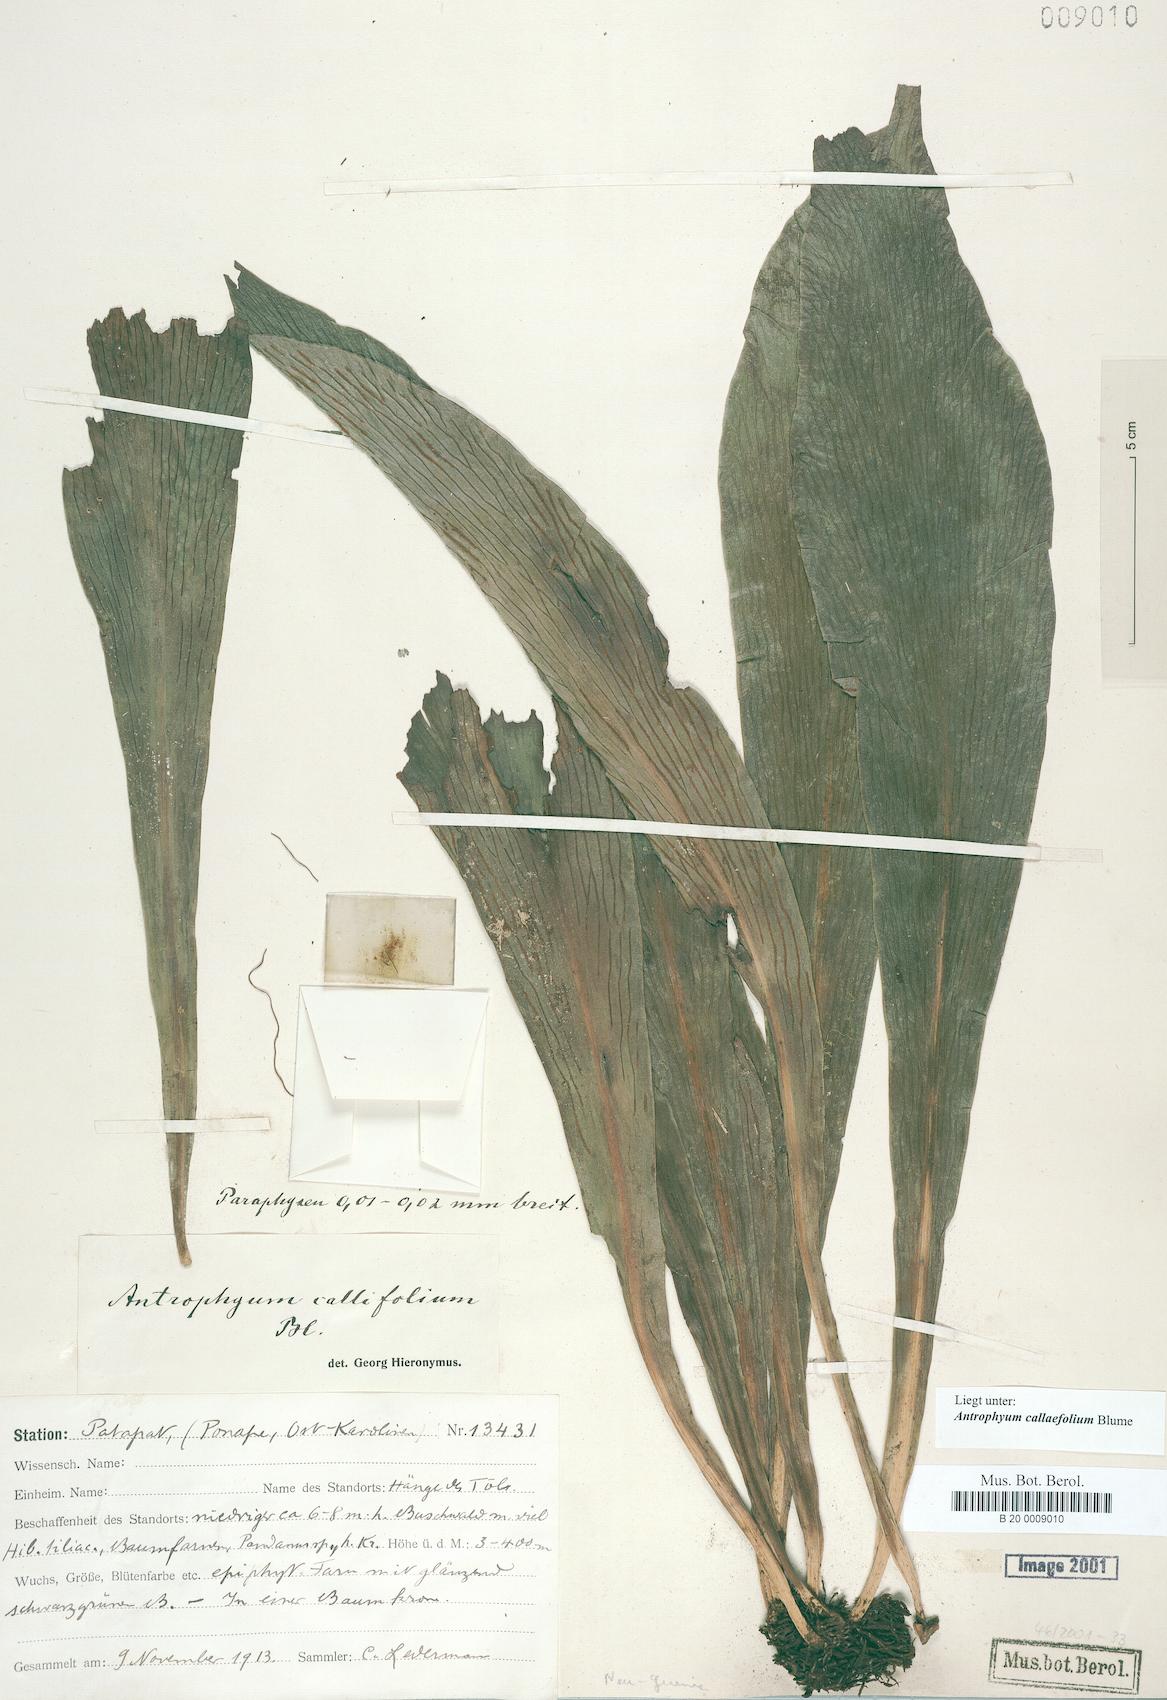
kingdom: Plantae
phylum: Tracheophyta
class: Polypodiopsida
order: Polypodiales
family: Pteridaceae
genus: Antrophyum
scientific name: Antrophyum callifolium
